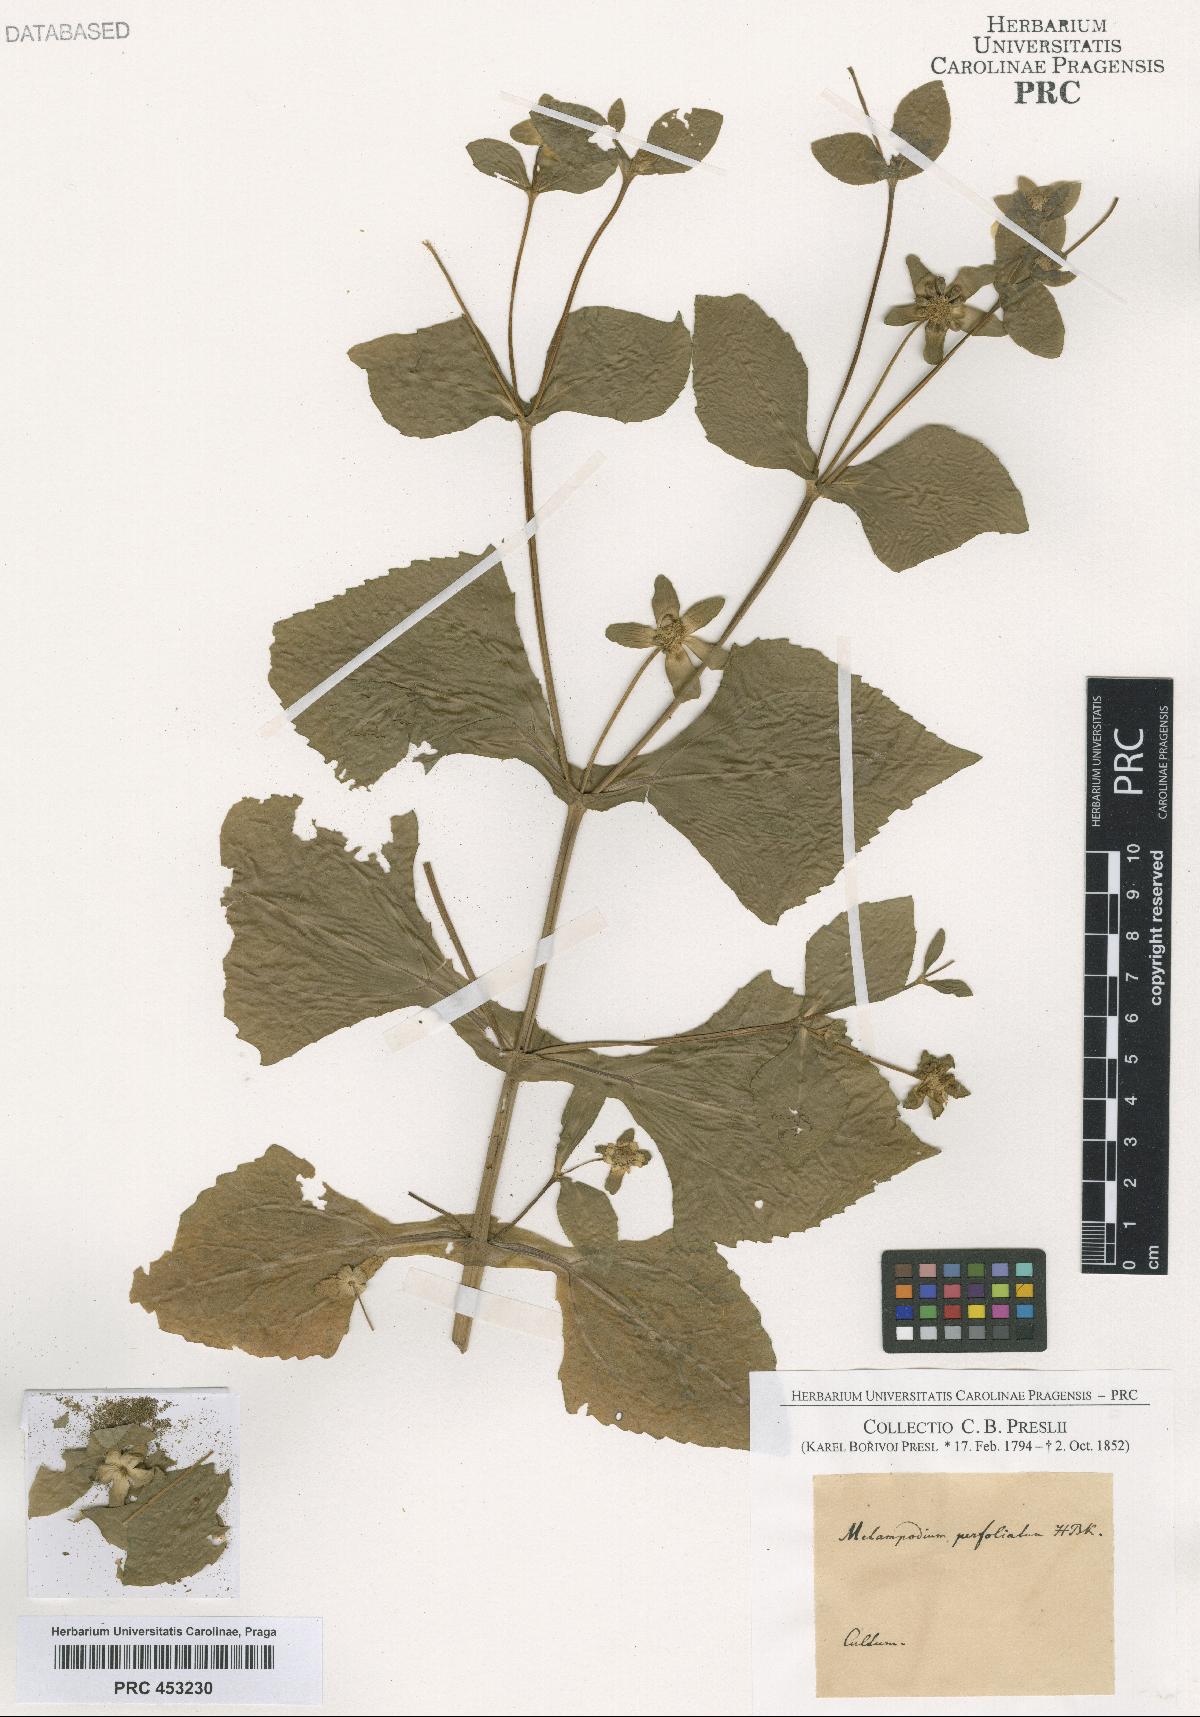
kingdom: Plantae
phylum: Tracheophyta
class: Magnoliopsida
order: Asterales
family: Asteraceae
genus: Melampodium
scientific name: Melampodium perfoliatum
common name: Perfoliate blackfoot
